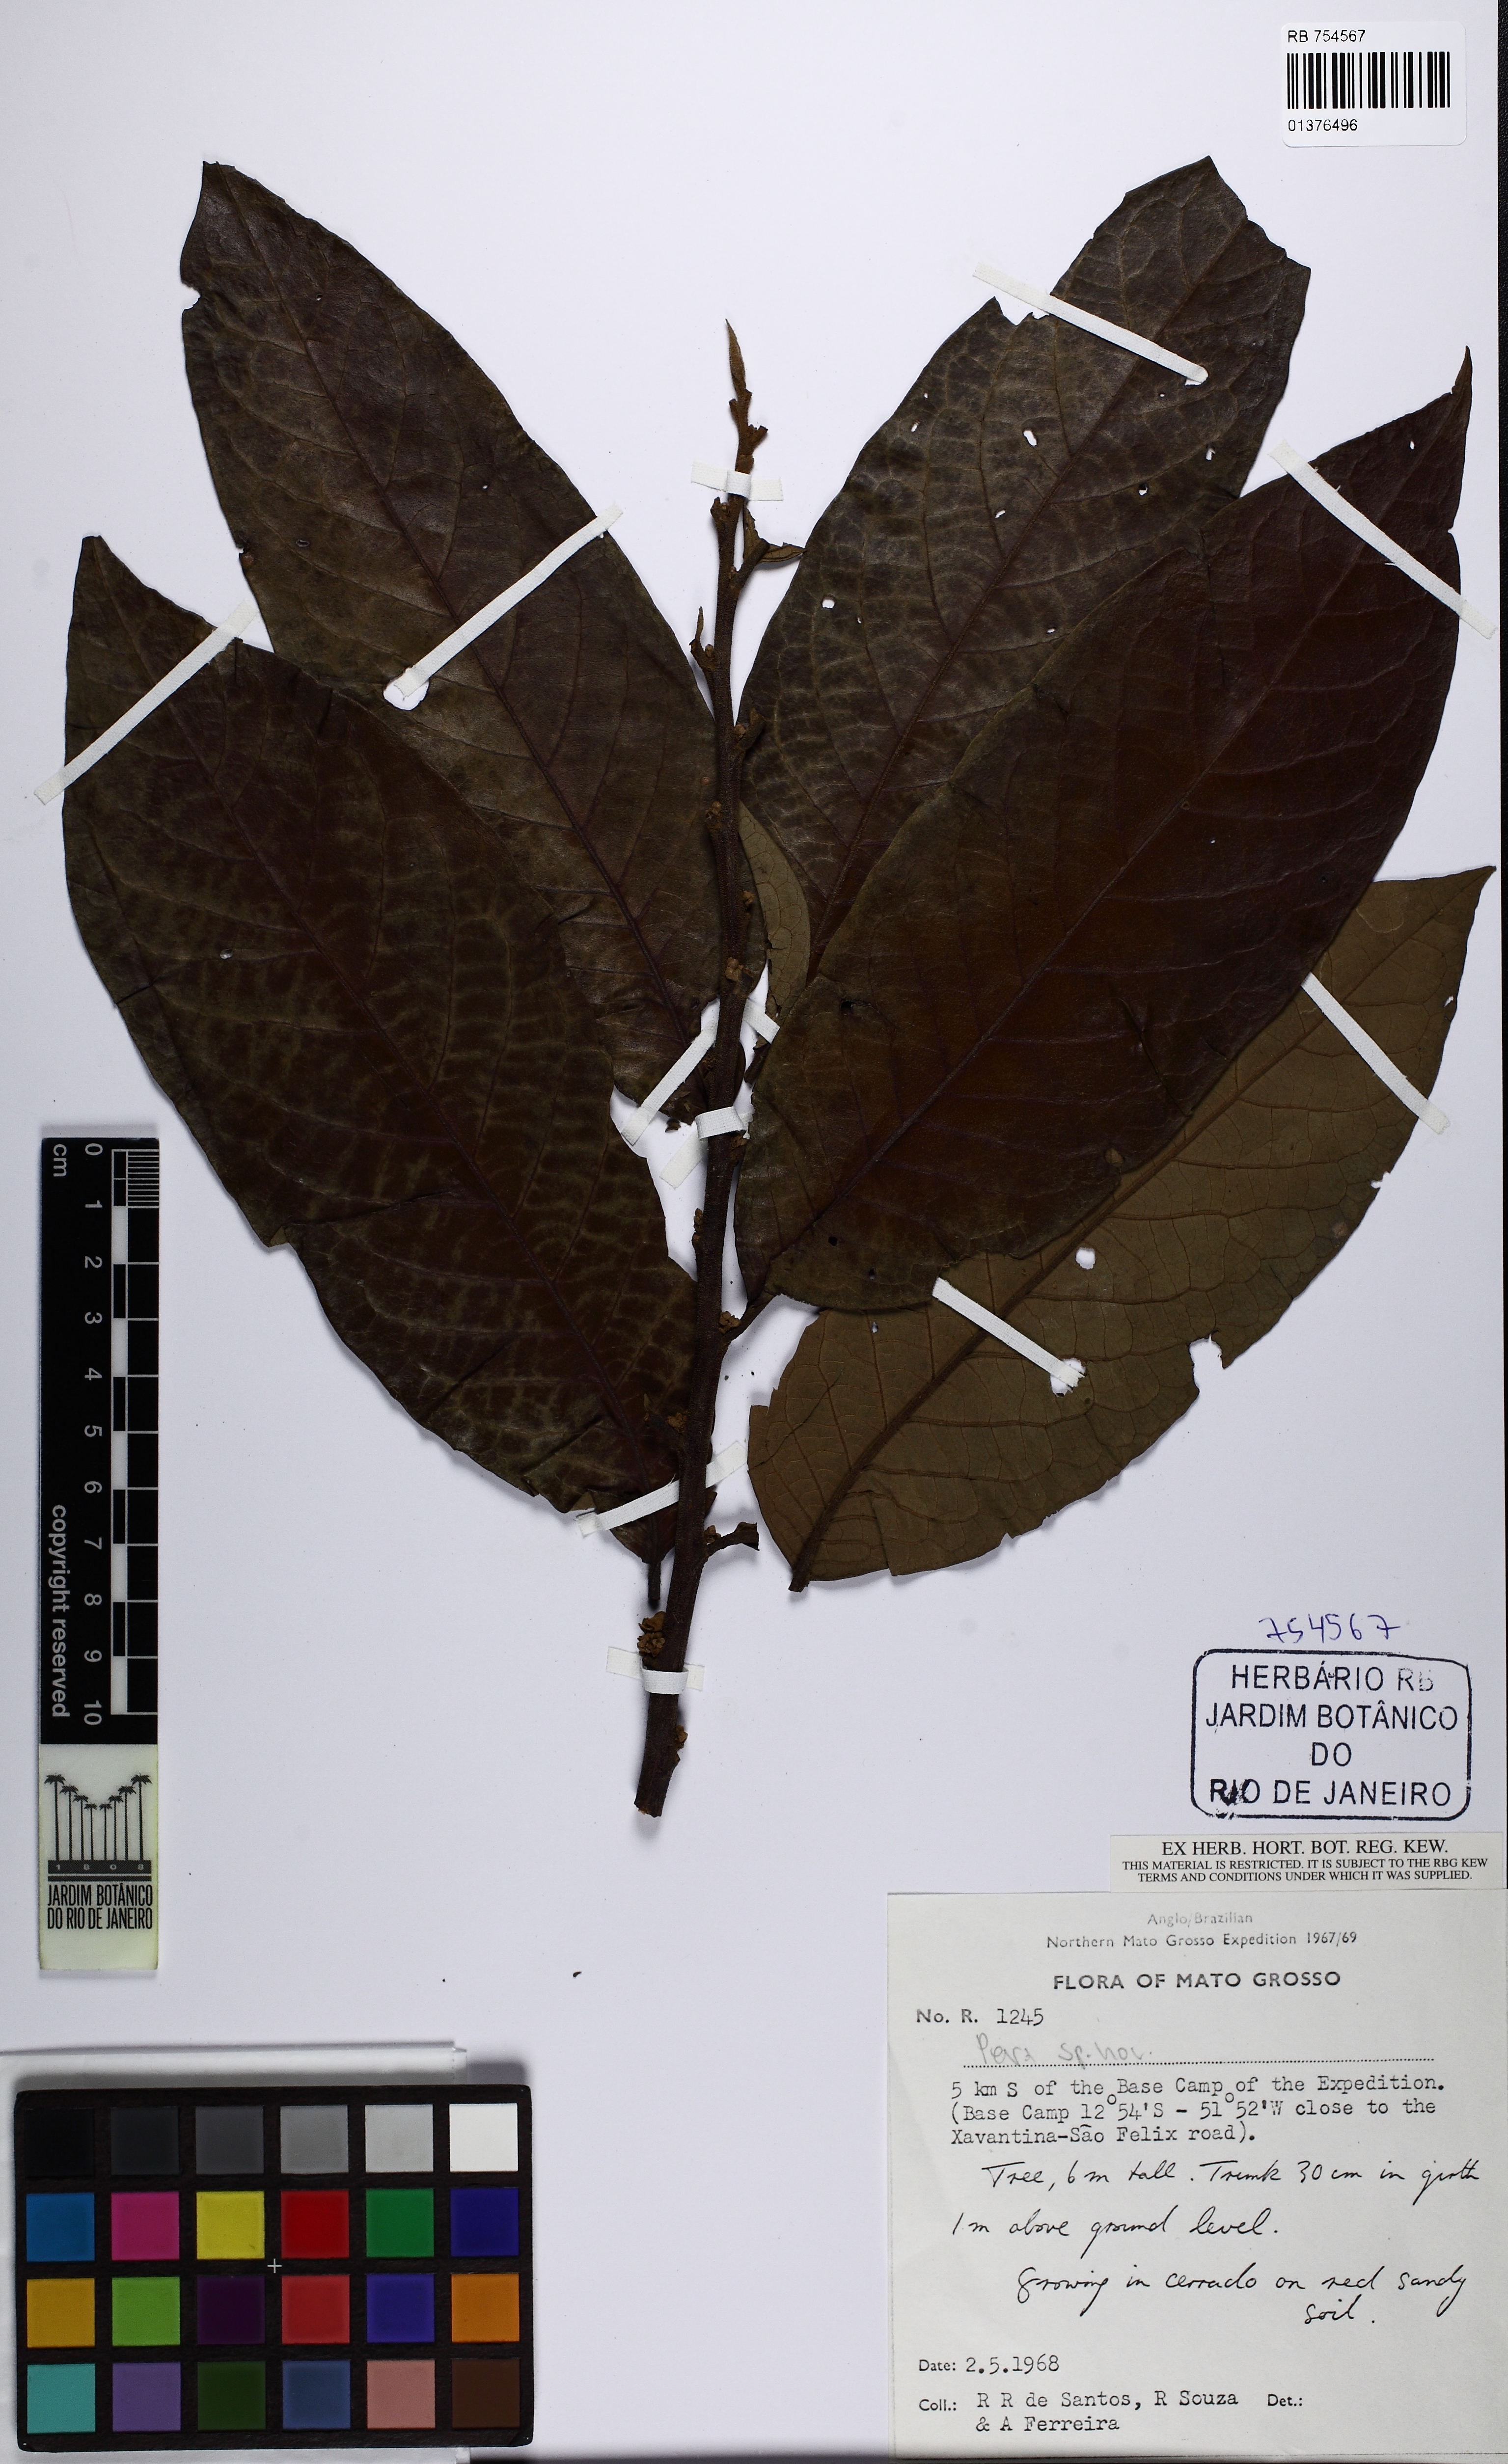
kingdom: Plantae
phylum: Tracheophyta
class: Magnoliopsida
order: Malpighiales
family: Peraceae
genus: Pera
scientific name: Pera eiteniorum
